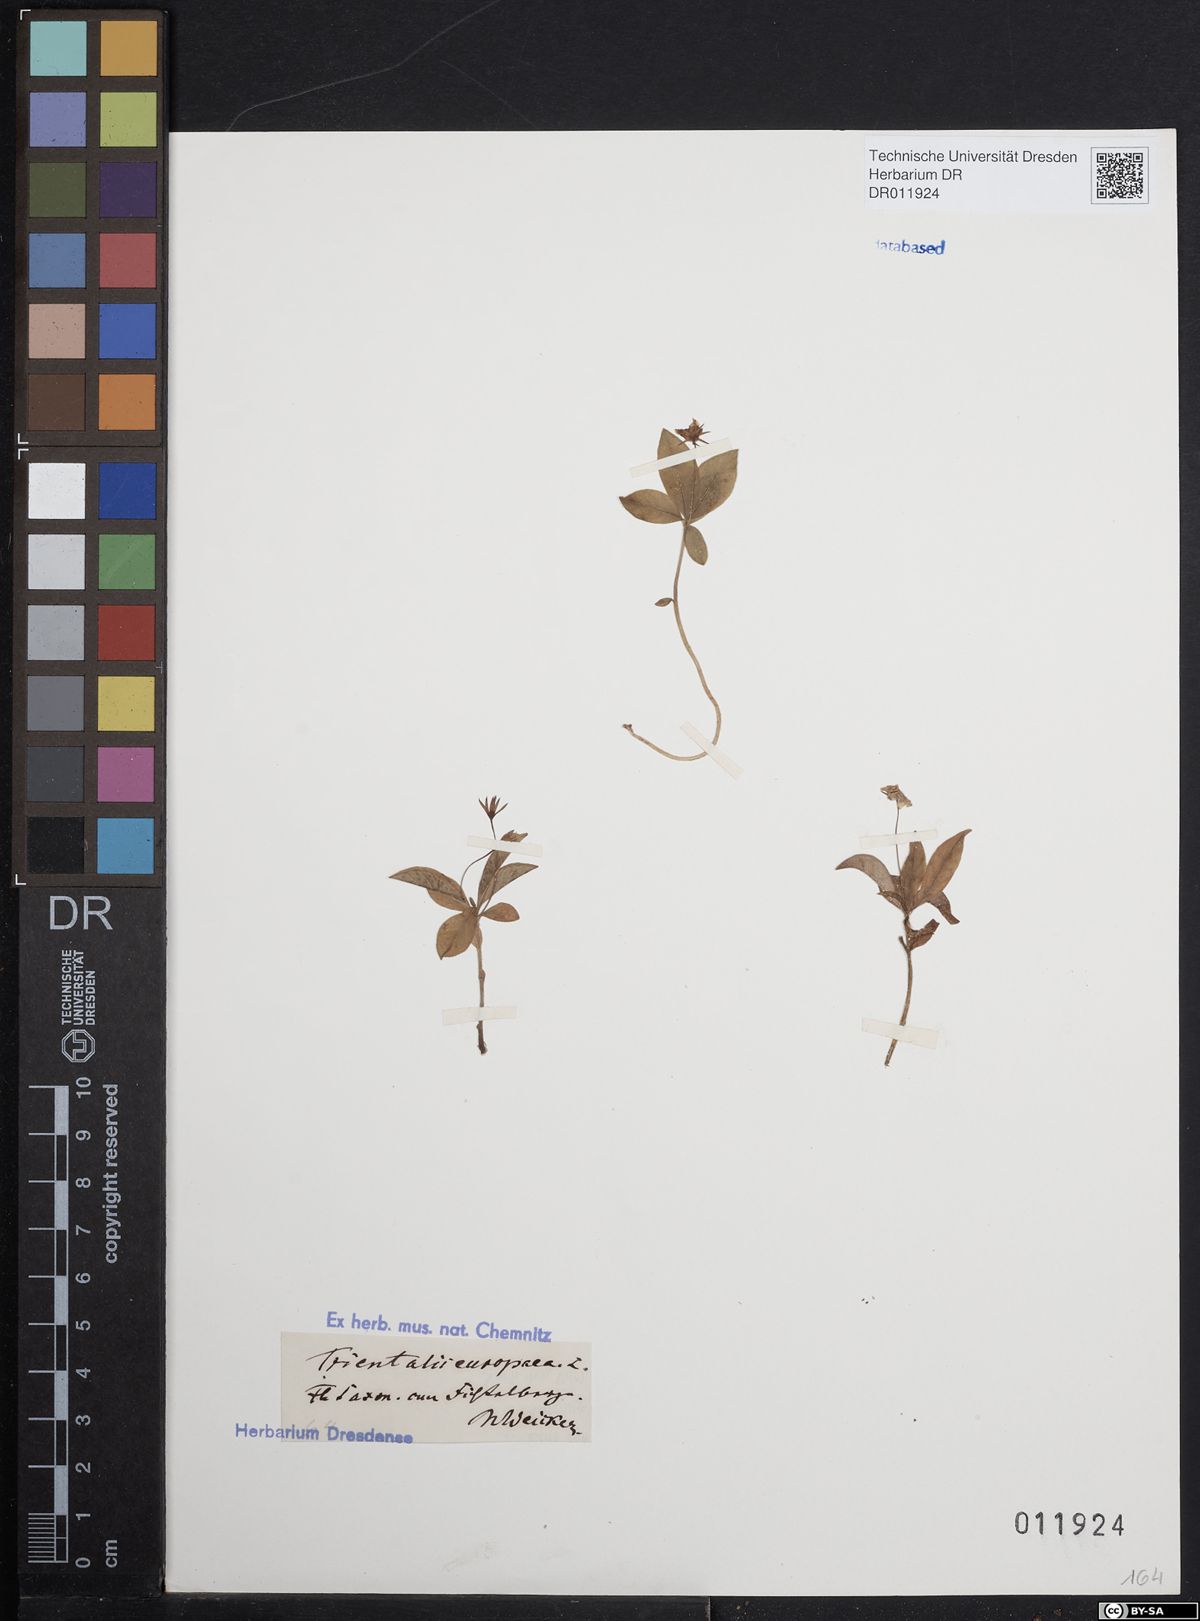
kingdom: Plantae
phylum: Tracheophyta
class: Magnoliopsida
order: Ericales
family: Primulaceae
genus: Lysimachia
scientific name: Lysimachia europaea
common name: Arctic starflower
